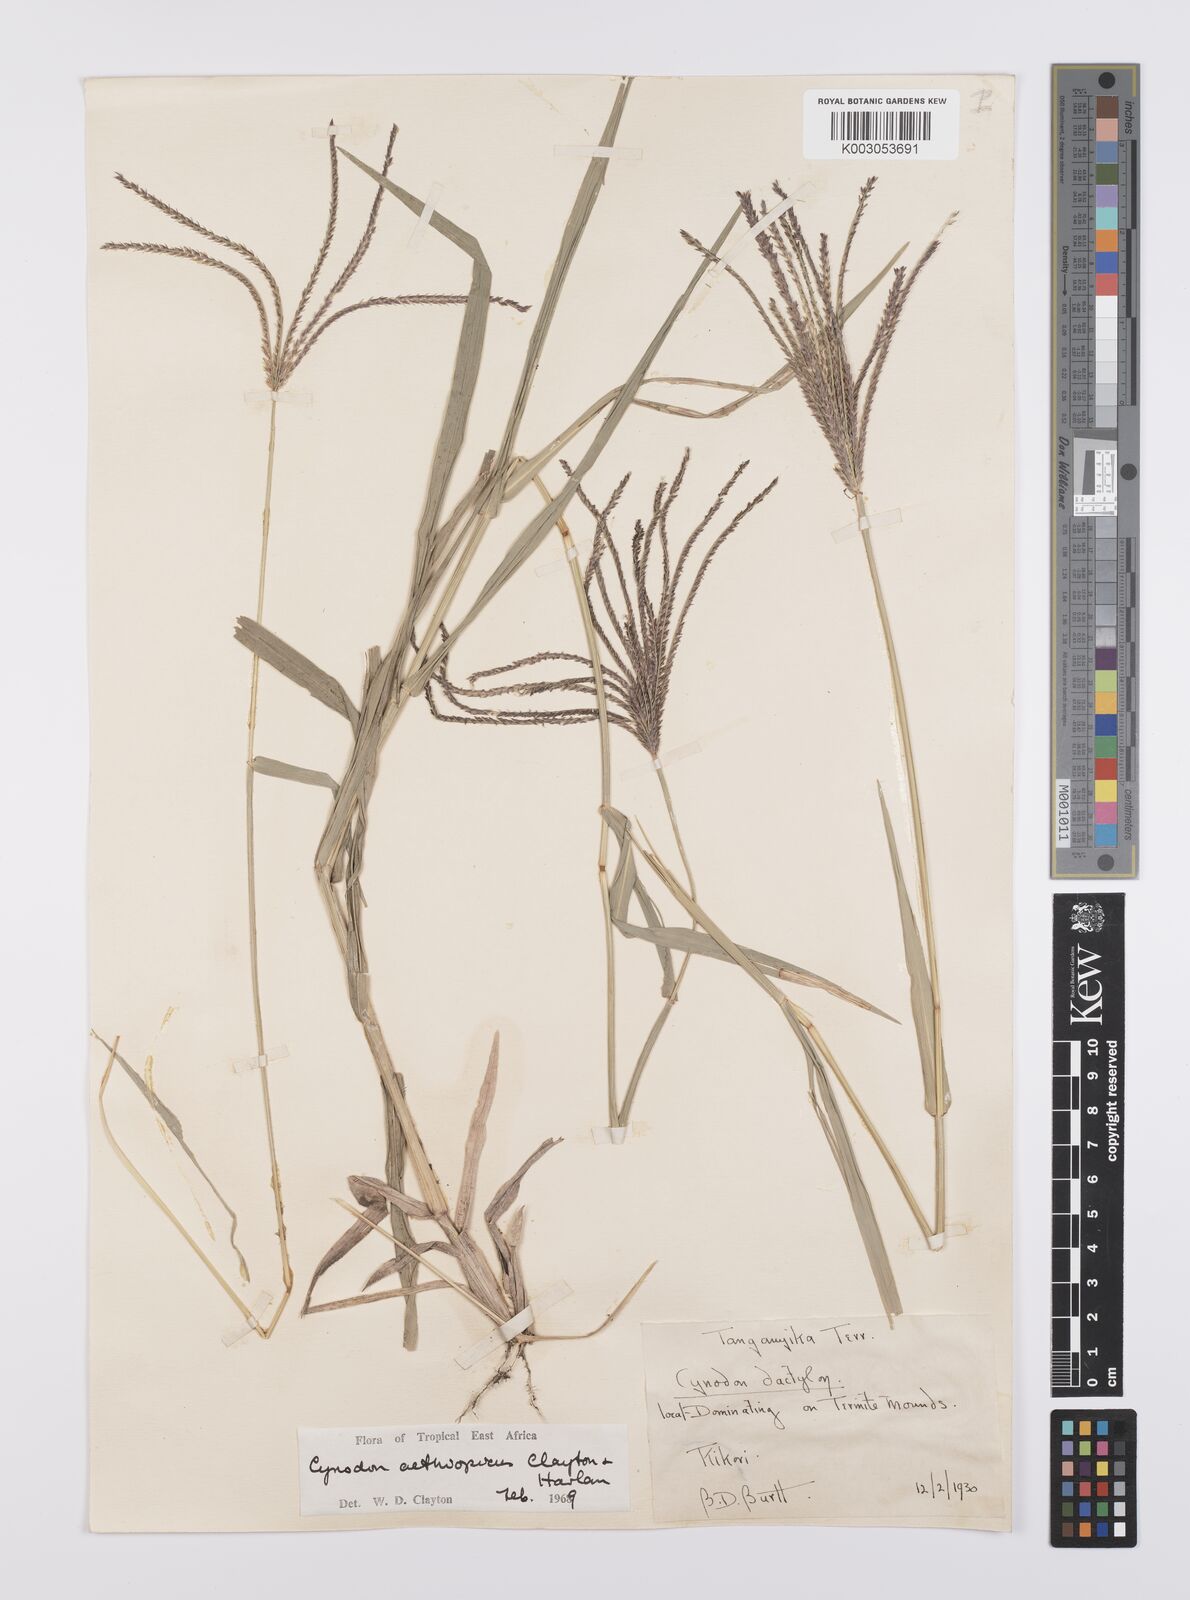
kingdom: Plantae
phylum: Tracheophyta
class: Liliopsida
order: Poales
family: Poaceae
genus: Cynodon
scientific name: Cynodon aethiopicus
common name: Ethiopian dogstooth grass
